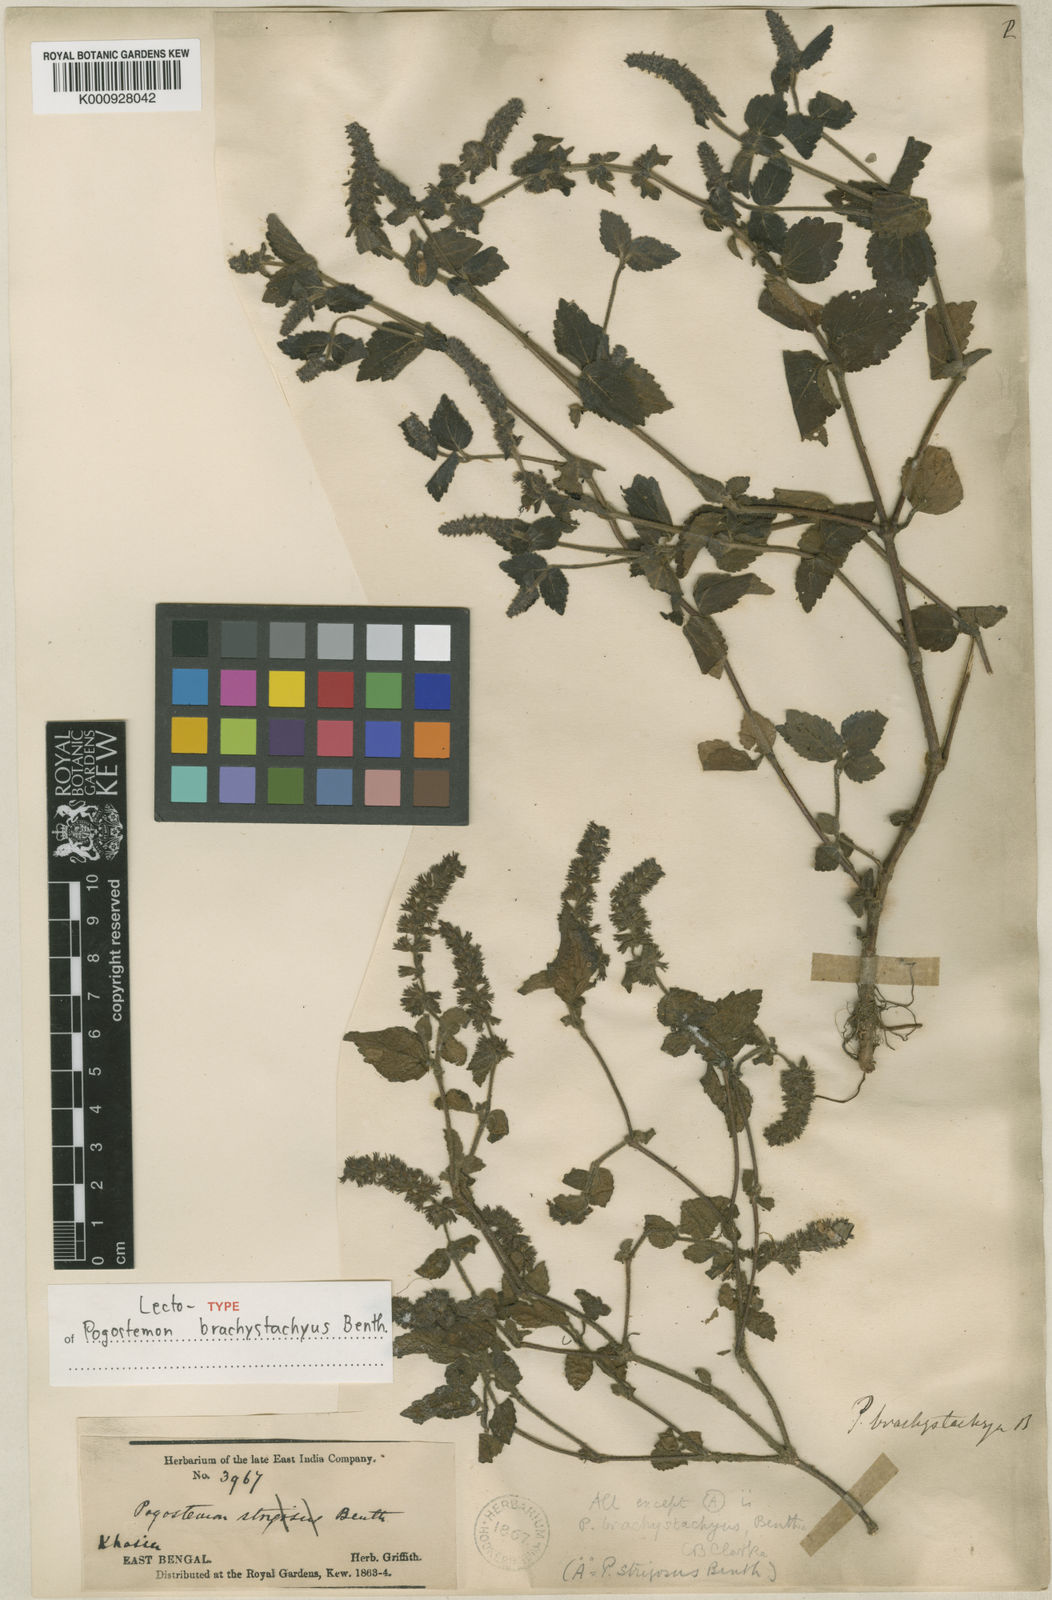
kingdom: Plantae
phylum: Tracheophyta
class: Magnoliopsida
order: Lamiales
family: Lamiaceae
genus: Pogostemon
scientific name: Pogostemon brachystachyus
